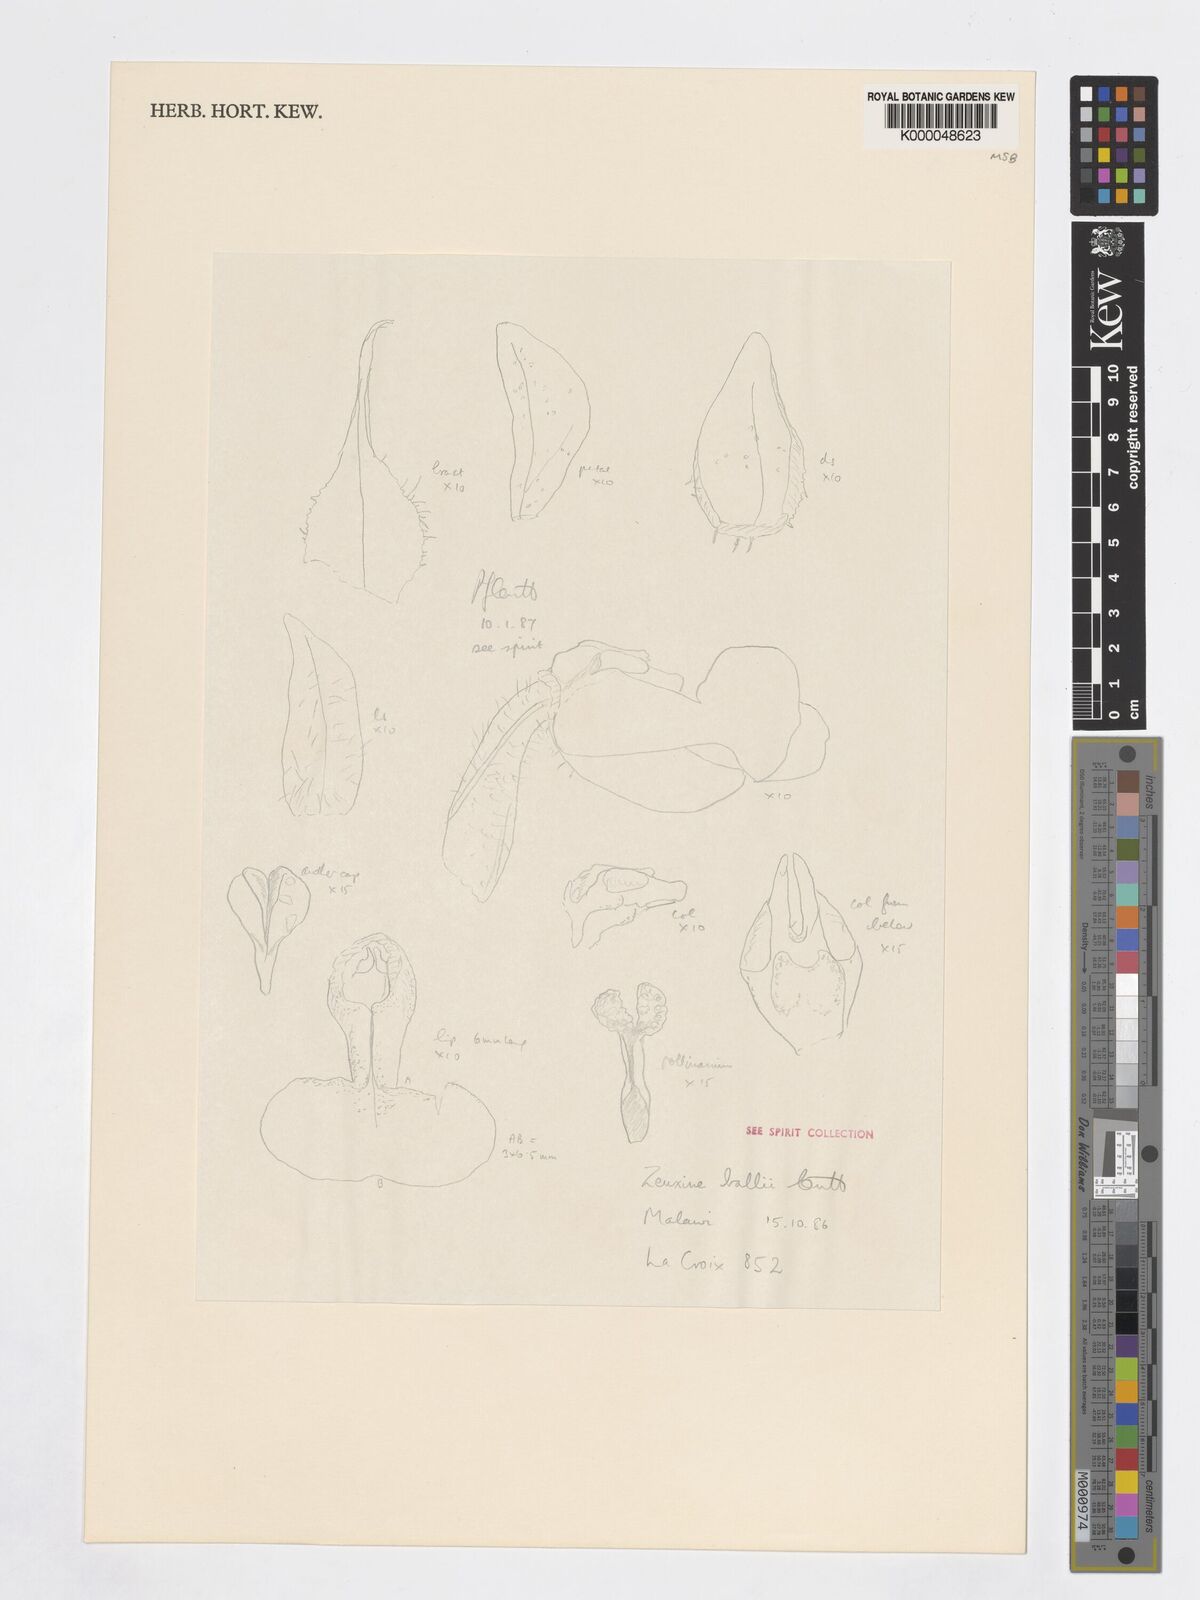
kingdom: Plantae
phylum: Tracheophyta
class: Liliopsida
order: Asparagales
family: Orchidaceae
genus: Zeuxine
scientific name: Zeuxine ballii
